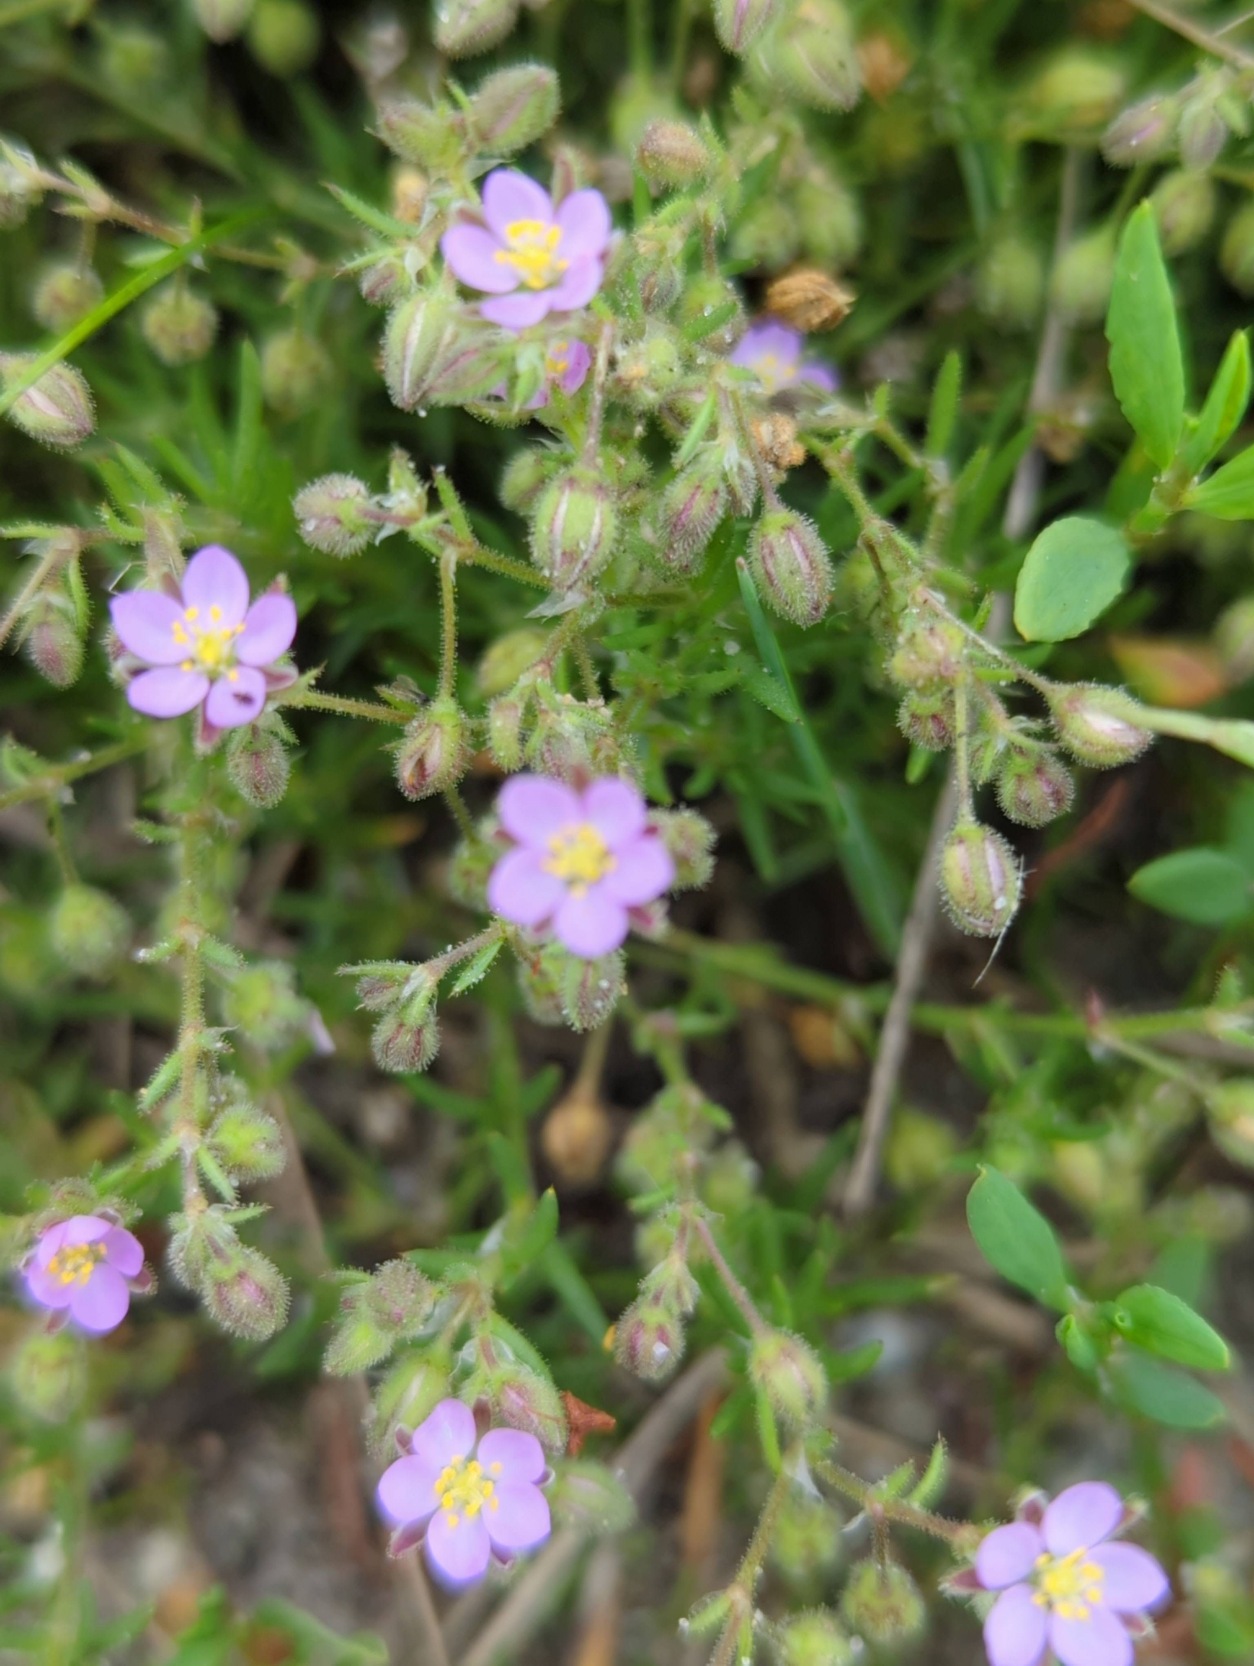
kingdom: Plantae
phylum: Tracheophyta
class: Magnoliopsida
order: Caryophyllales
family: Caryophyllaceae
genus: Spergularia
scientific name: Spergularia rubra
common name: Mark-hindeknæ
